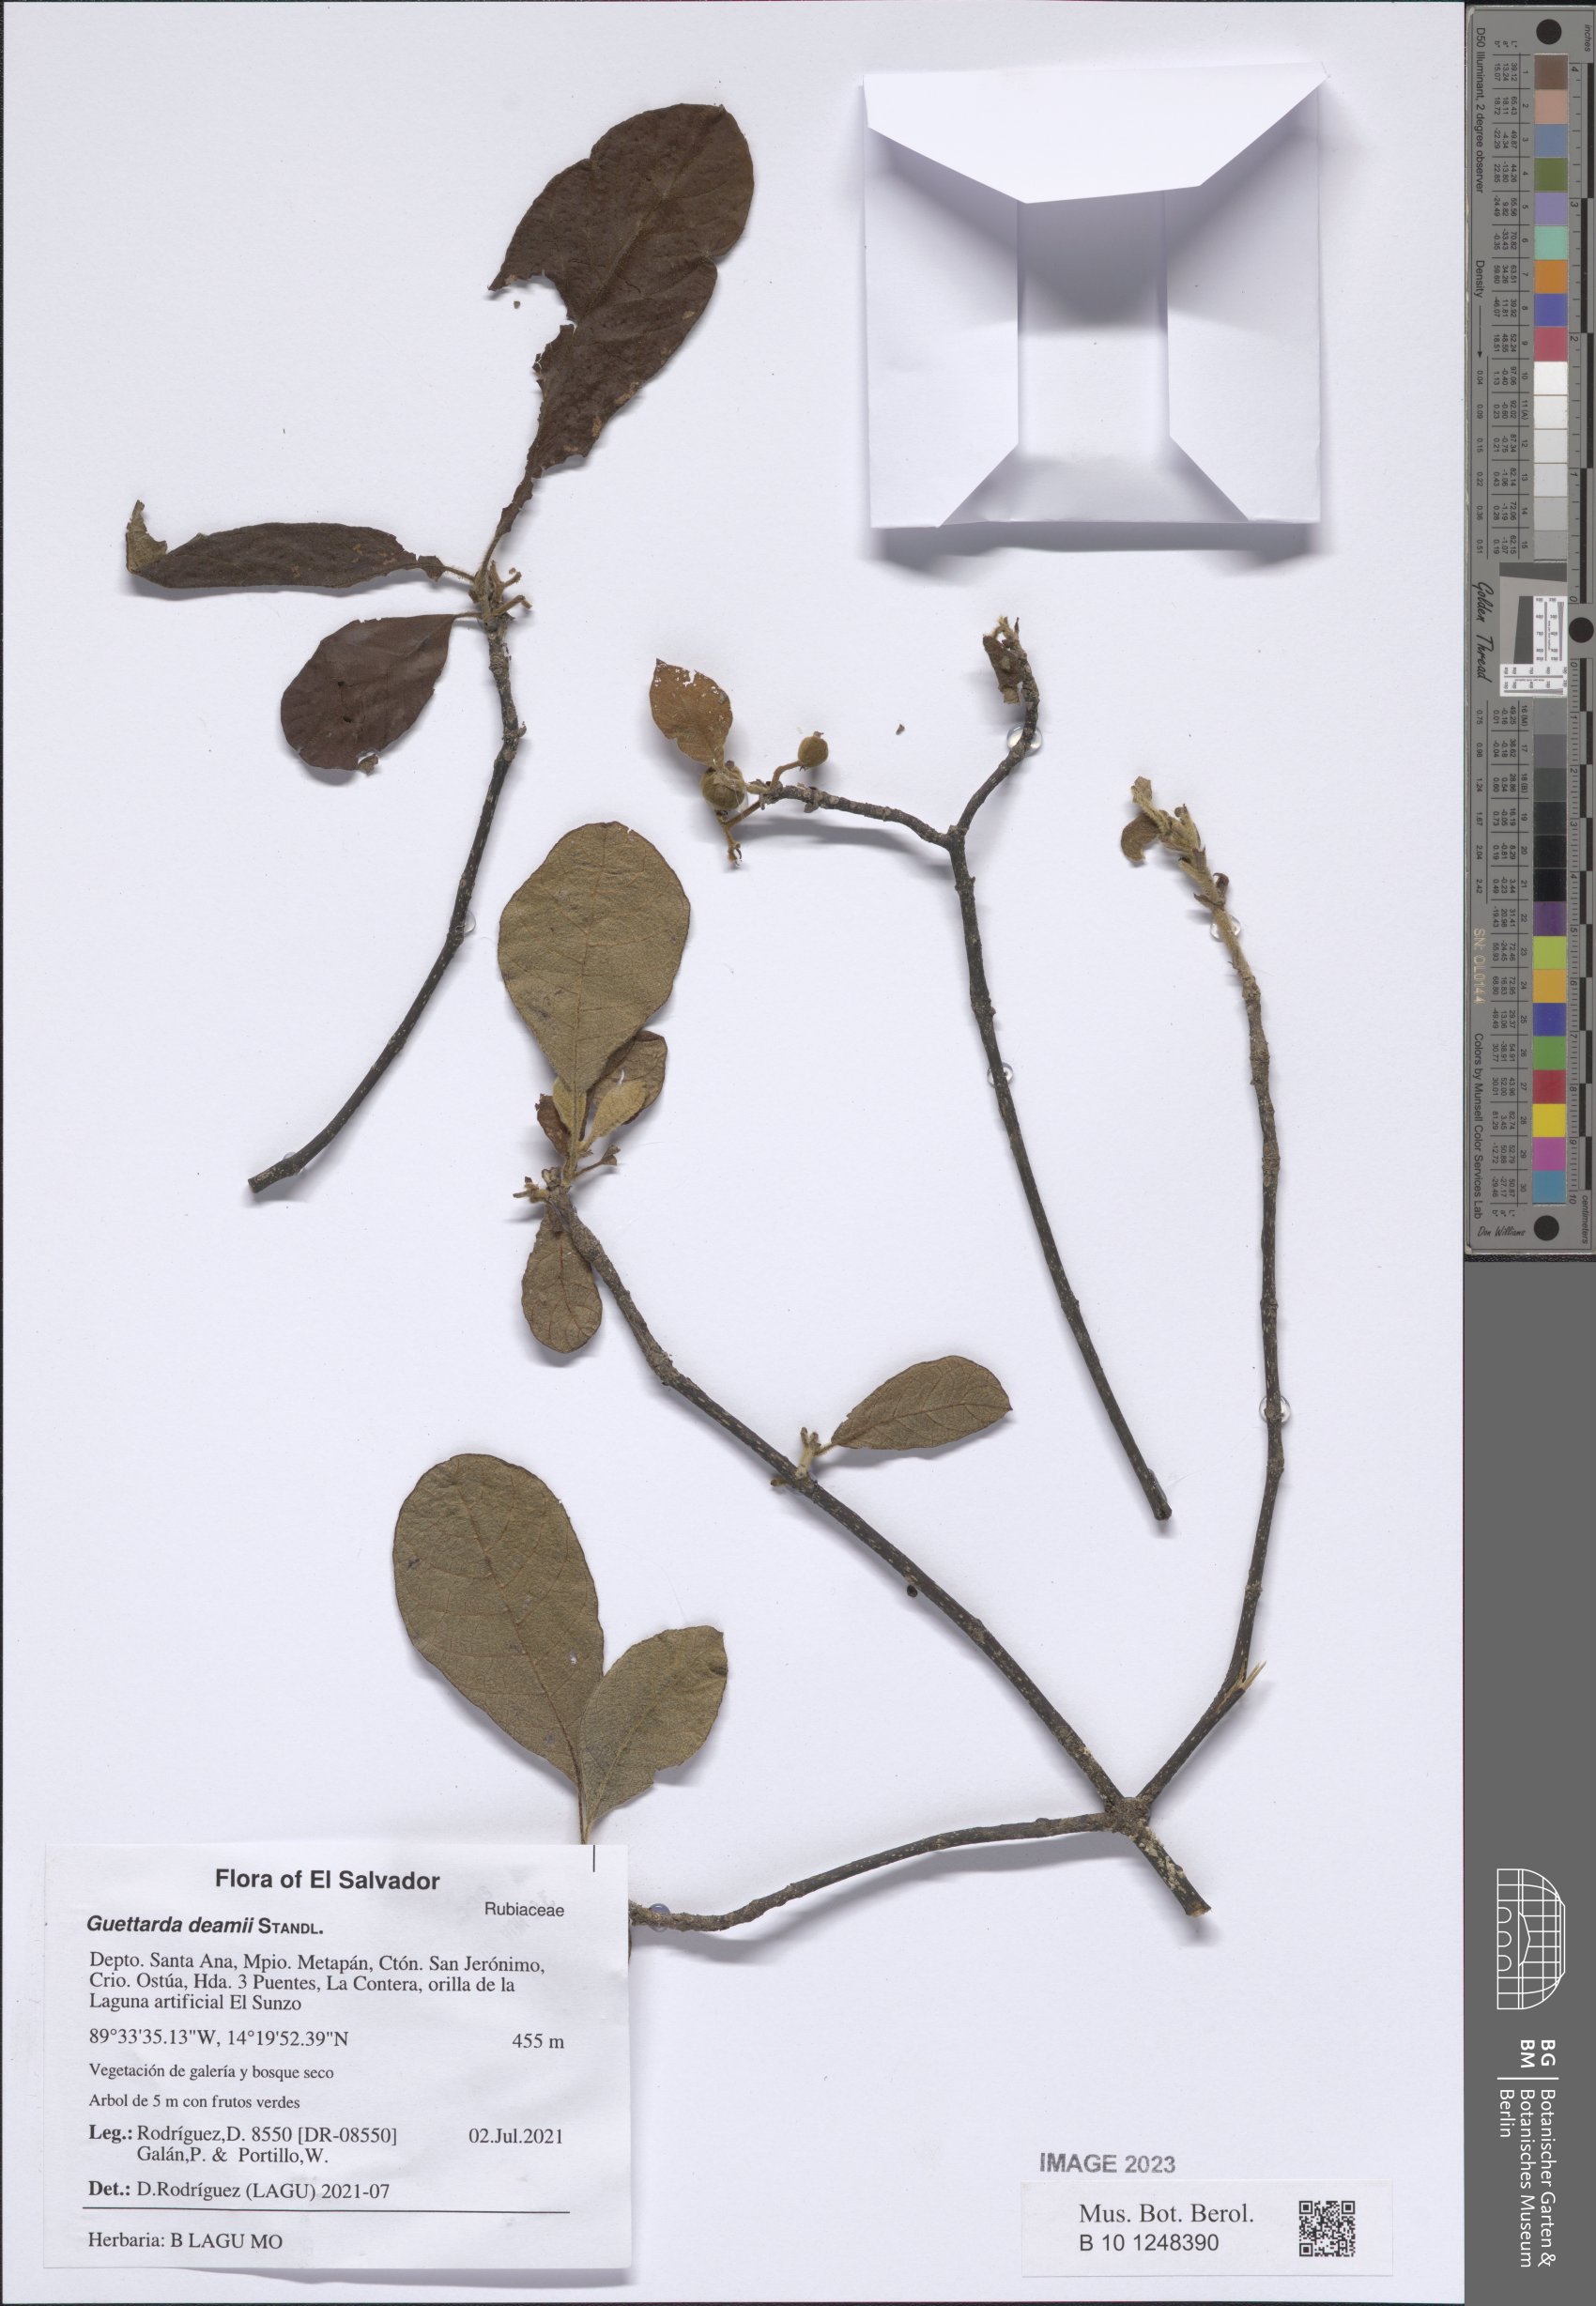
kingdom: Plantae
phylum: Tracheophyta
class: Magnoliopsida
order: Gentianales
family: Rubiaceae
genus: Guettarda
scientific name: Guettarda deamii
